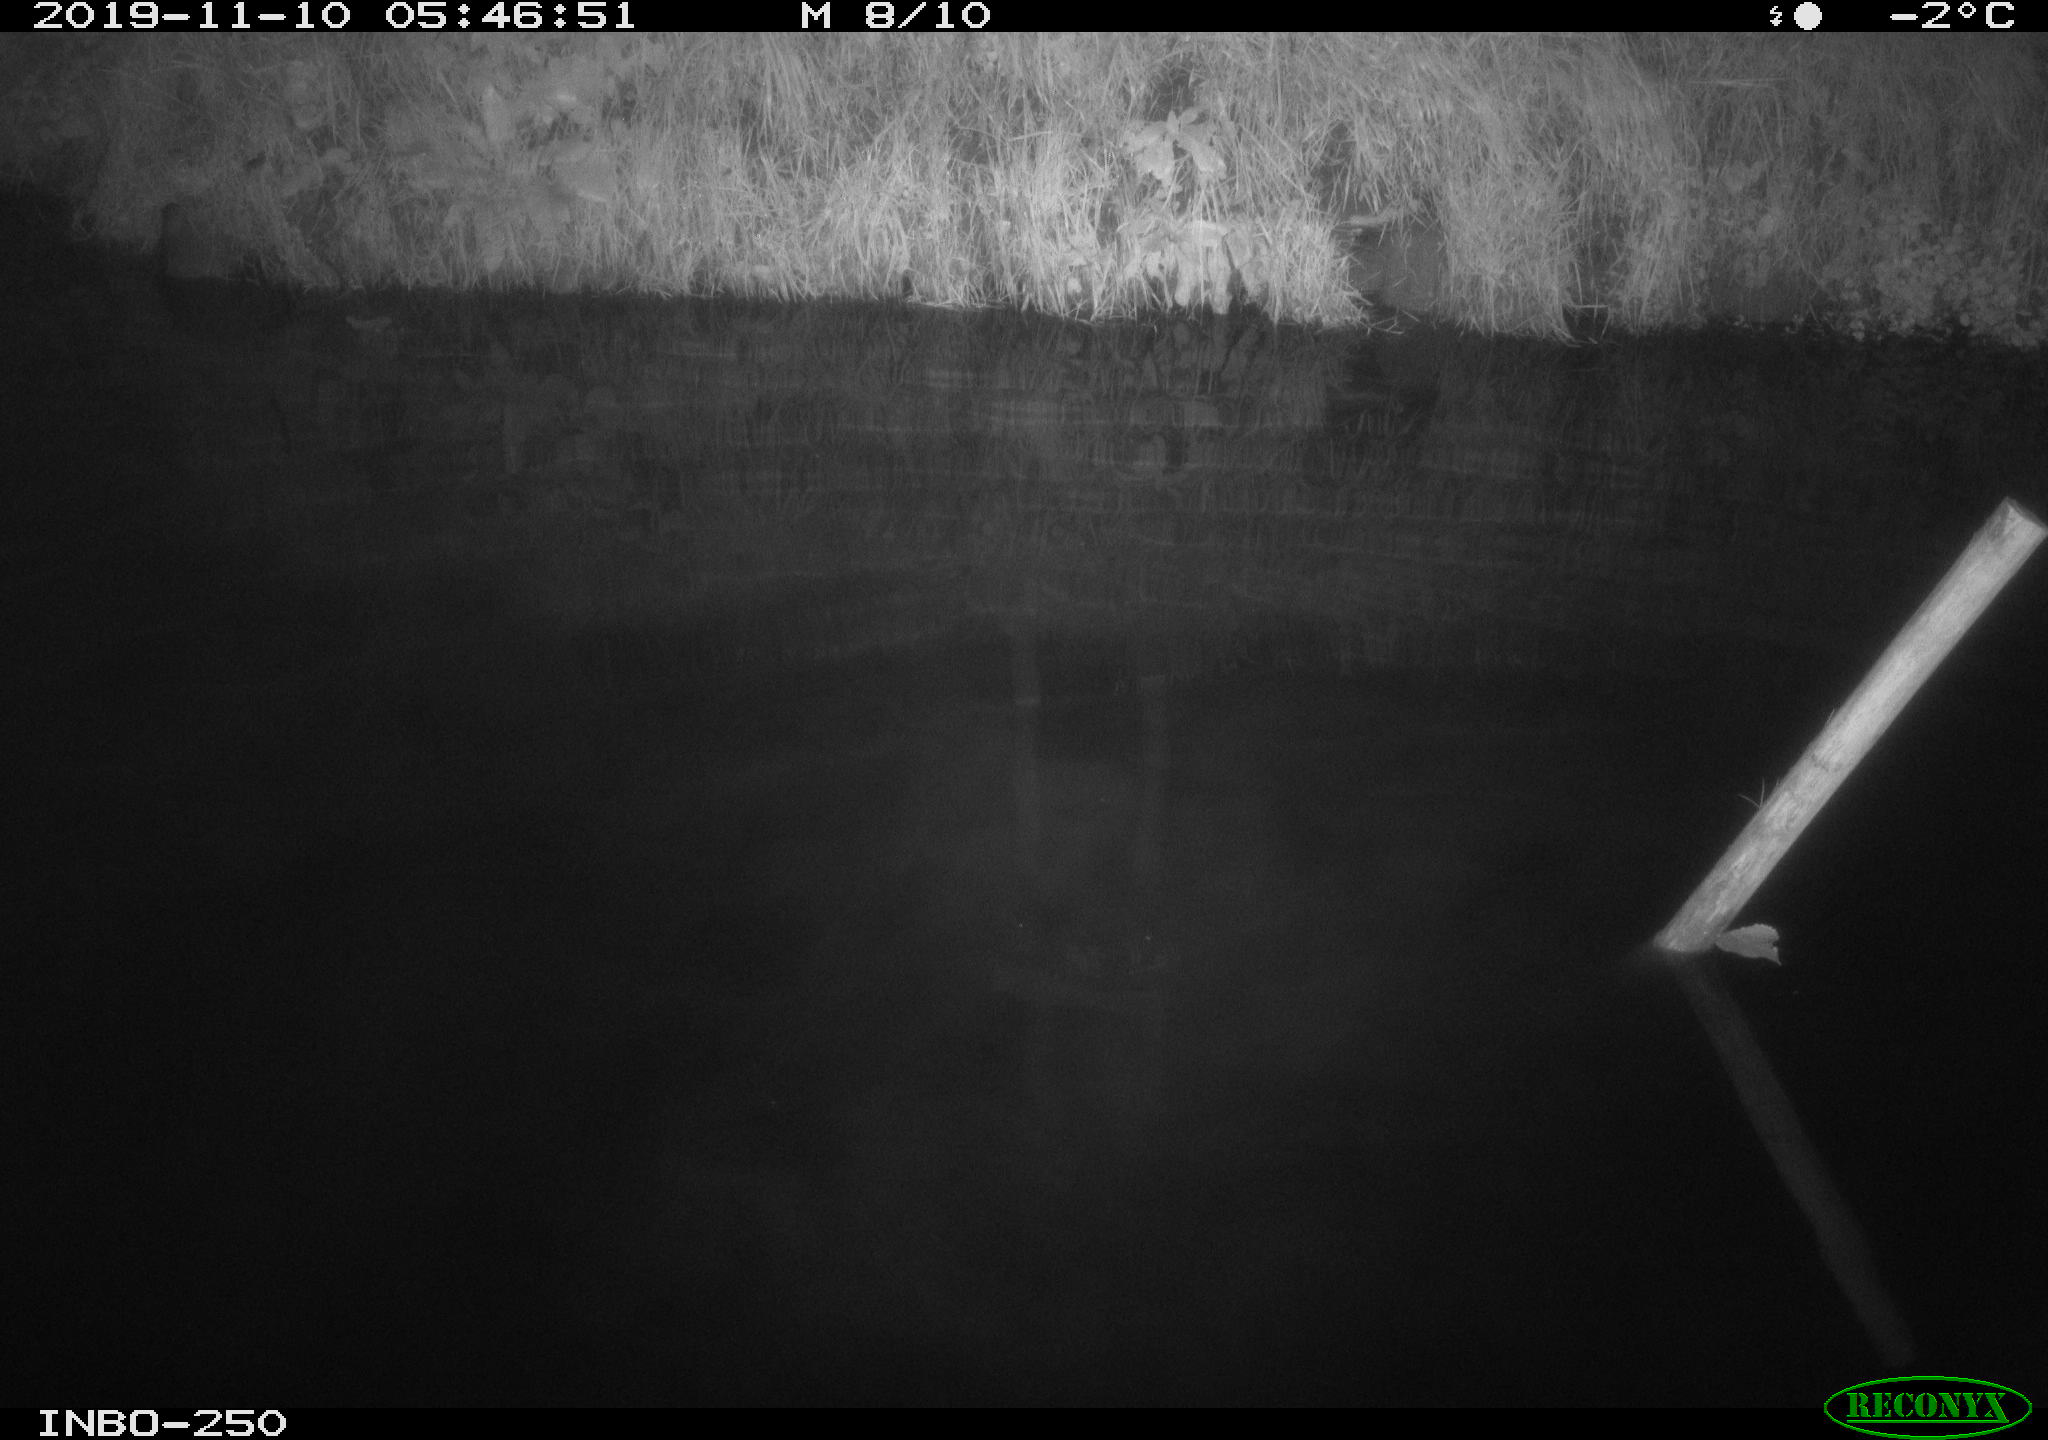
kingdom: Animalia
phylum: Chordata
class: Aves
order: Anseriformes
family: Anatidae
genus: Anas
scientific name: Anas platyrhynchos
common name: Mallard
